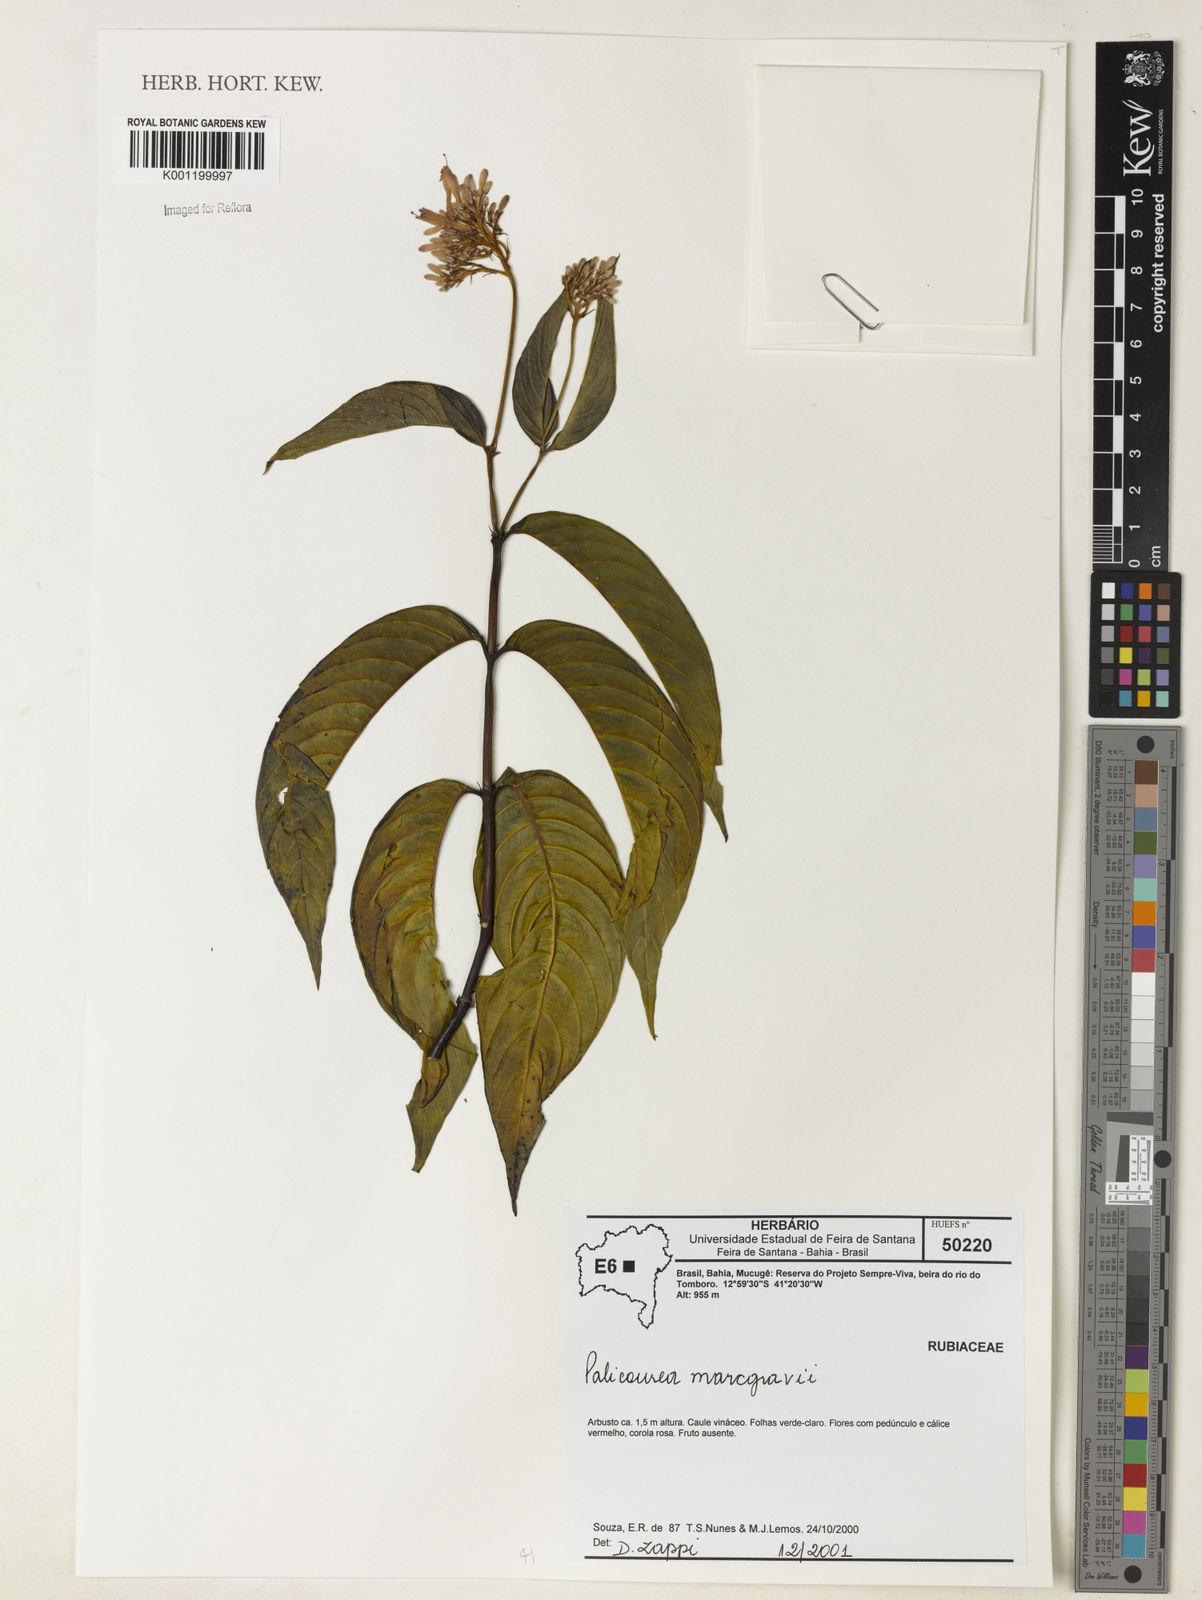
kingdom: Plantae
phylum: Tracheophyta
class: Magnoliopsida
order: Gentianales
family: Rubiaceae
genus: Palicourea
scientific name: Palicourea marcgravii
